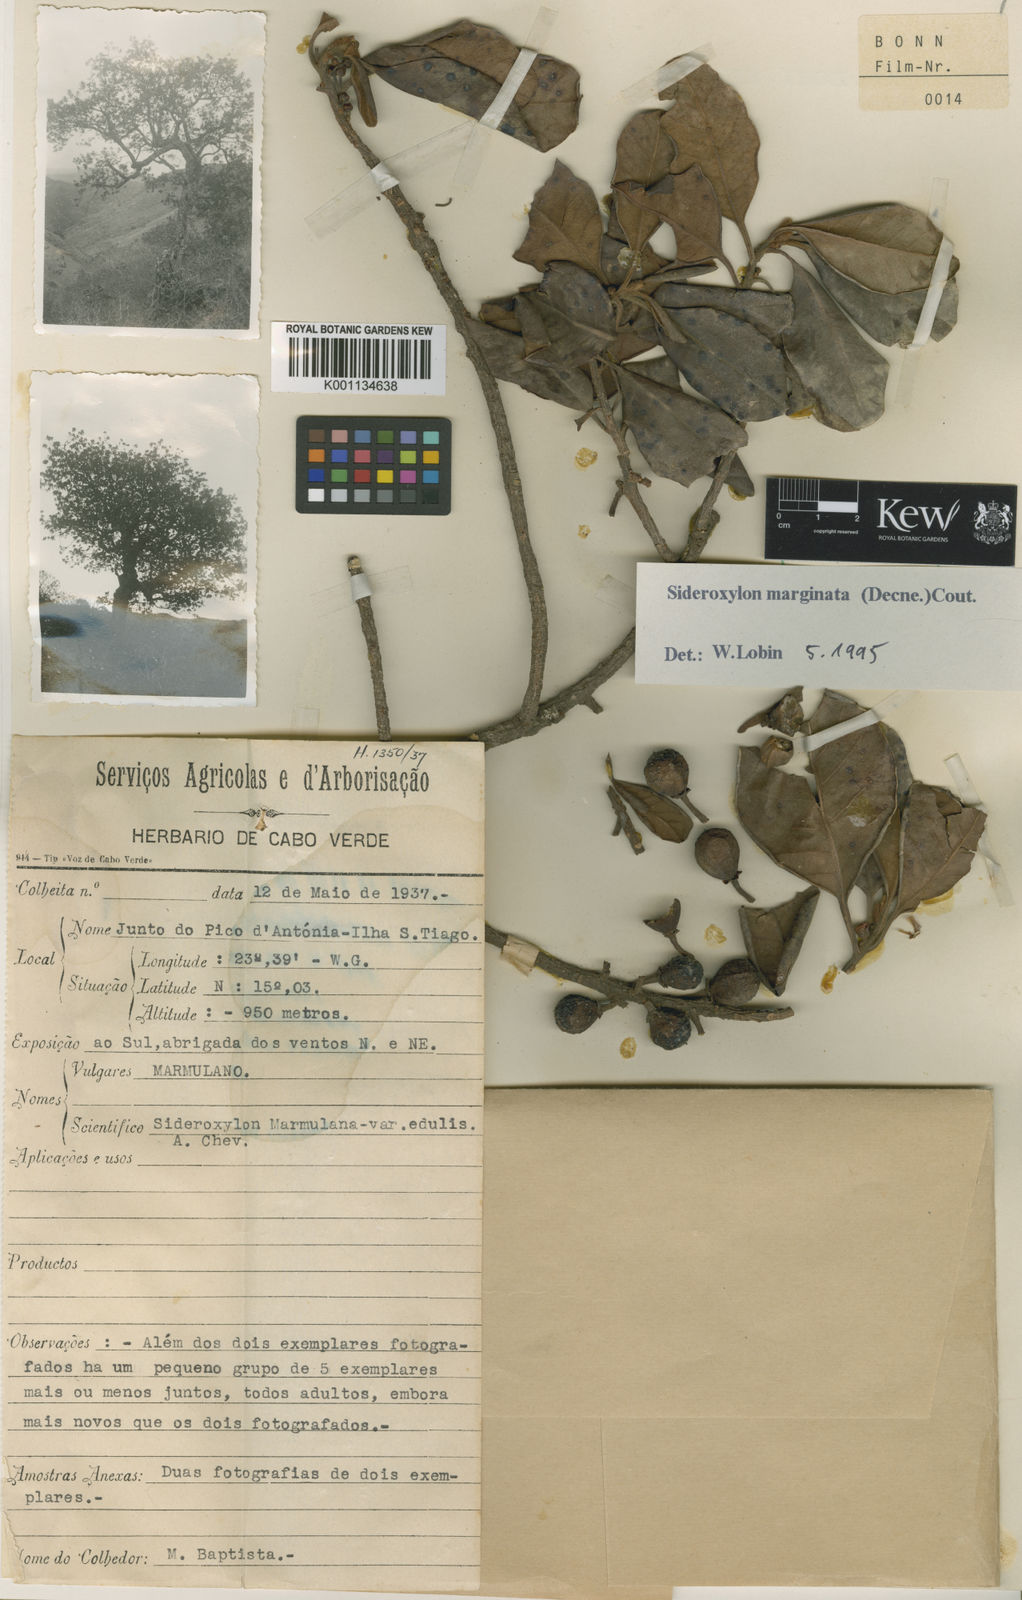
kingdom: Plantae
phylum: Tracheophyta
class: Magnoliopsida
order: Ericales
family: Sapotaceae
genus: Sideroxylon
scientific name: Sideroxylon marginatum
